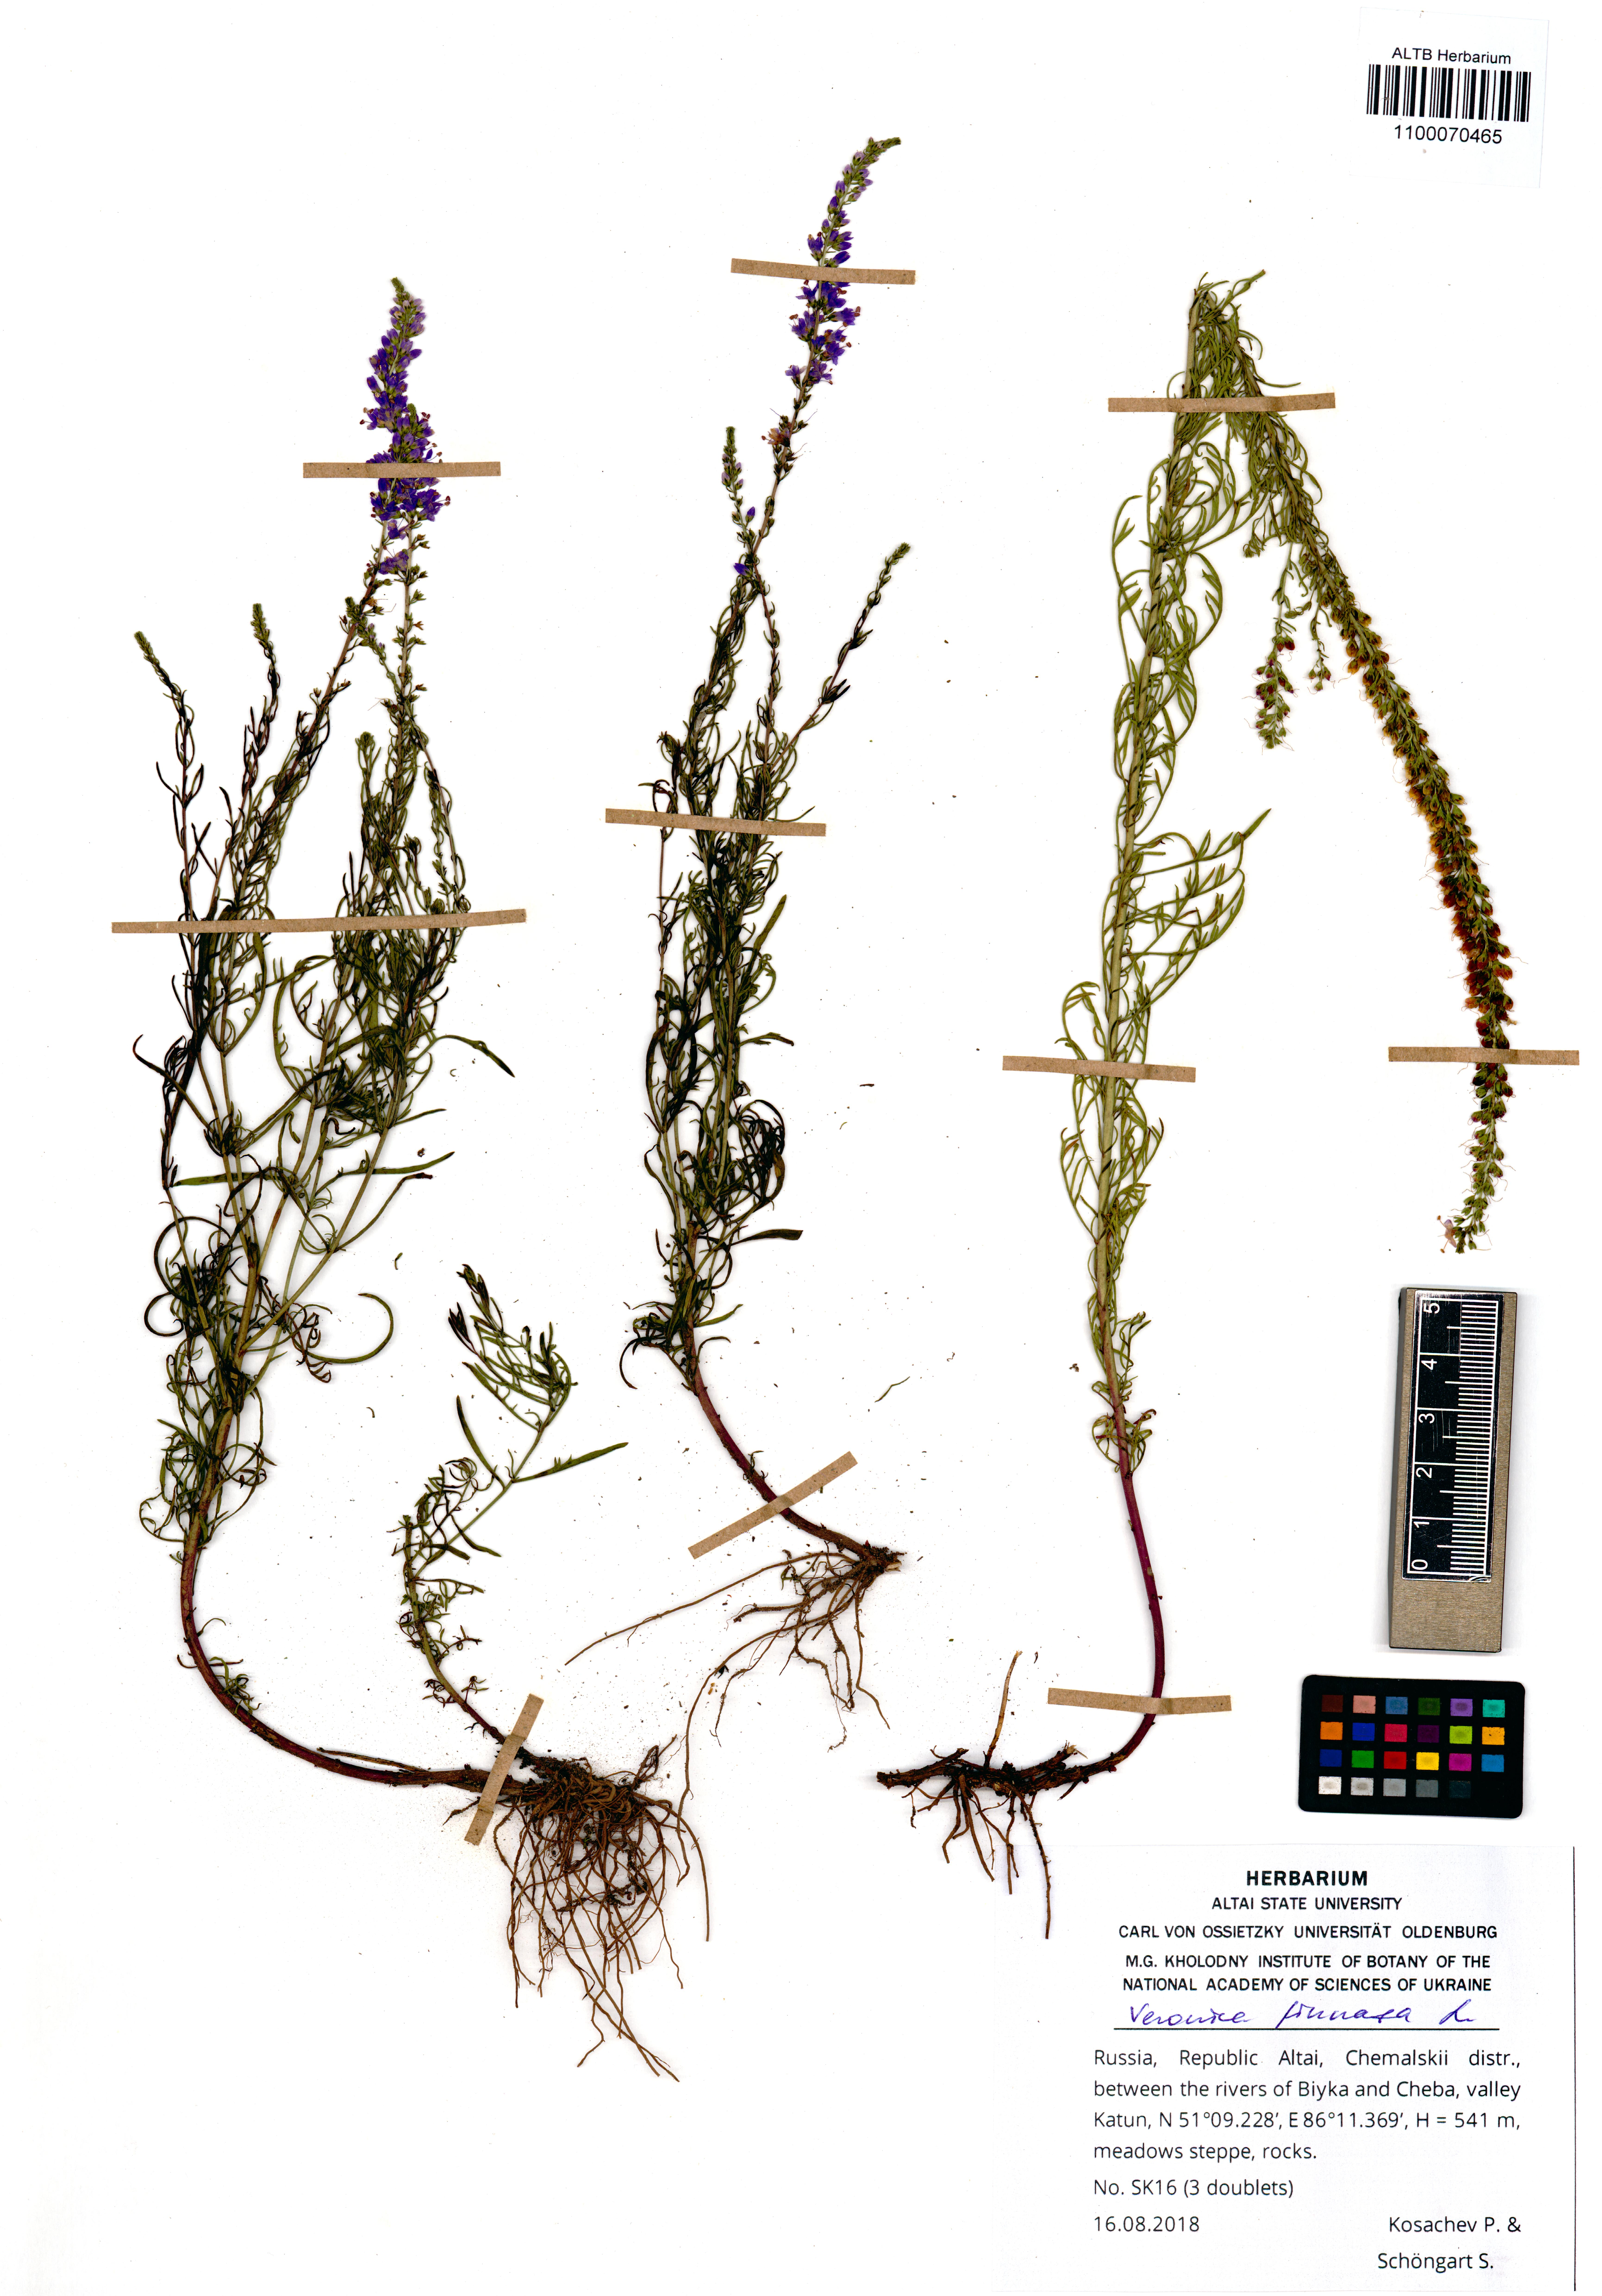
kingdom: Plantae
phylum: Tracheophyta
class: Magnoliopsida
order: Lamiales
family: Plantaginaceae
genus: Veronica
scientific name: Veronica pinnata
